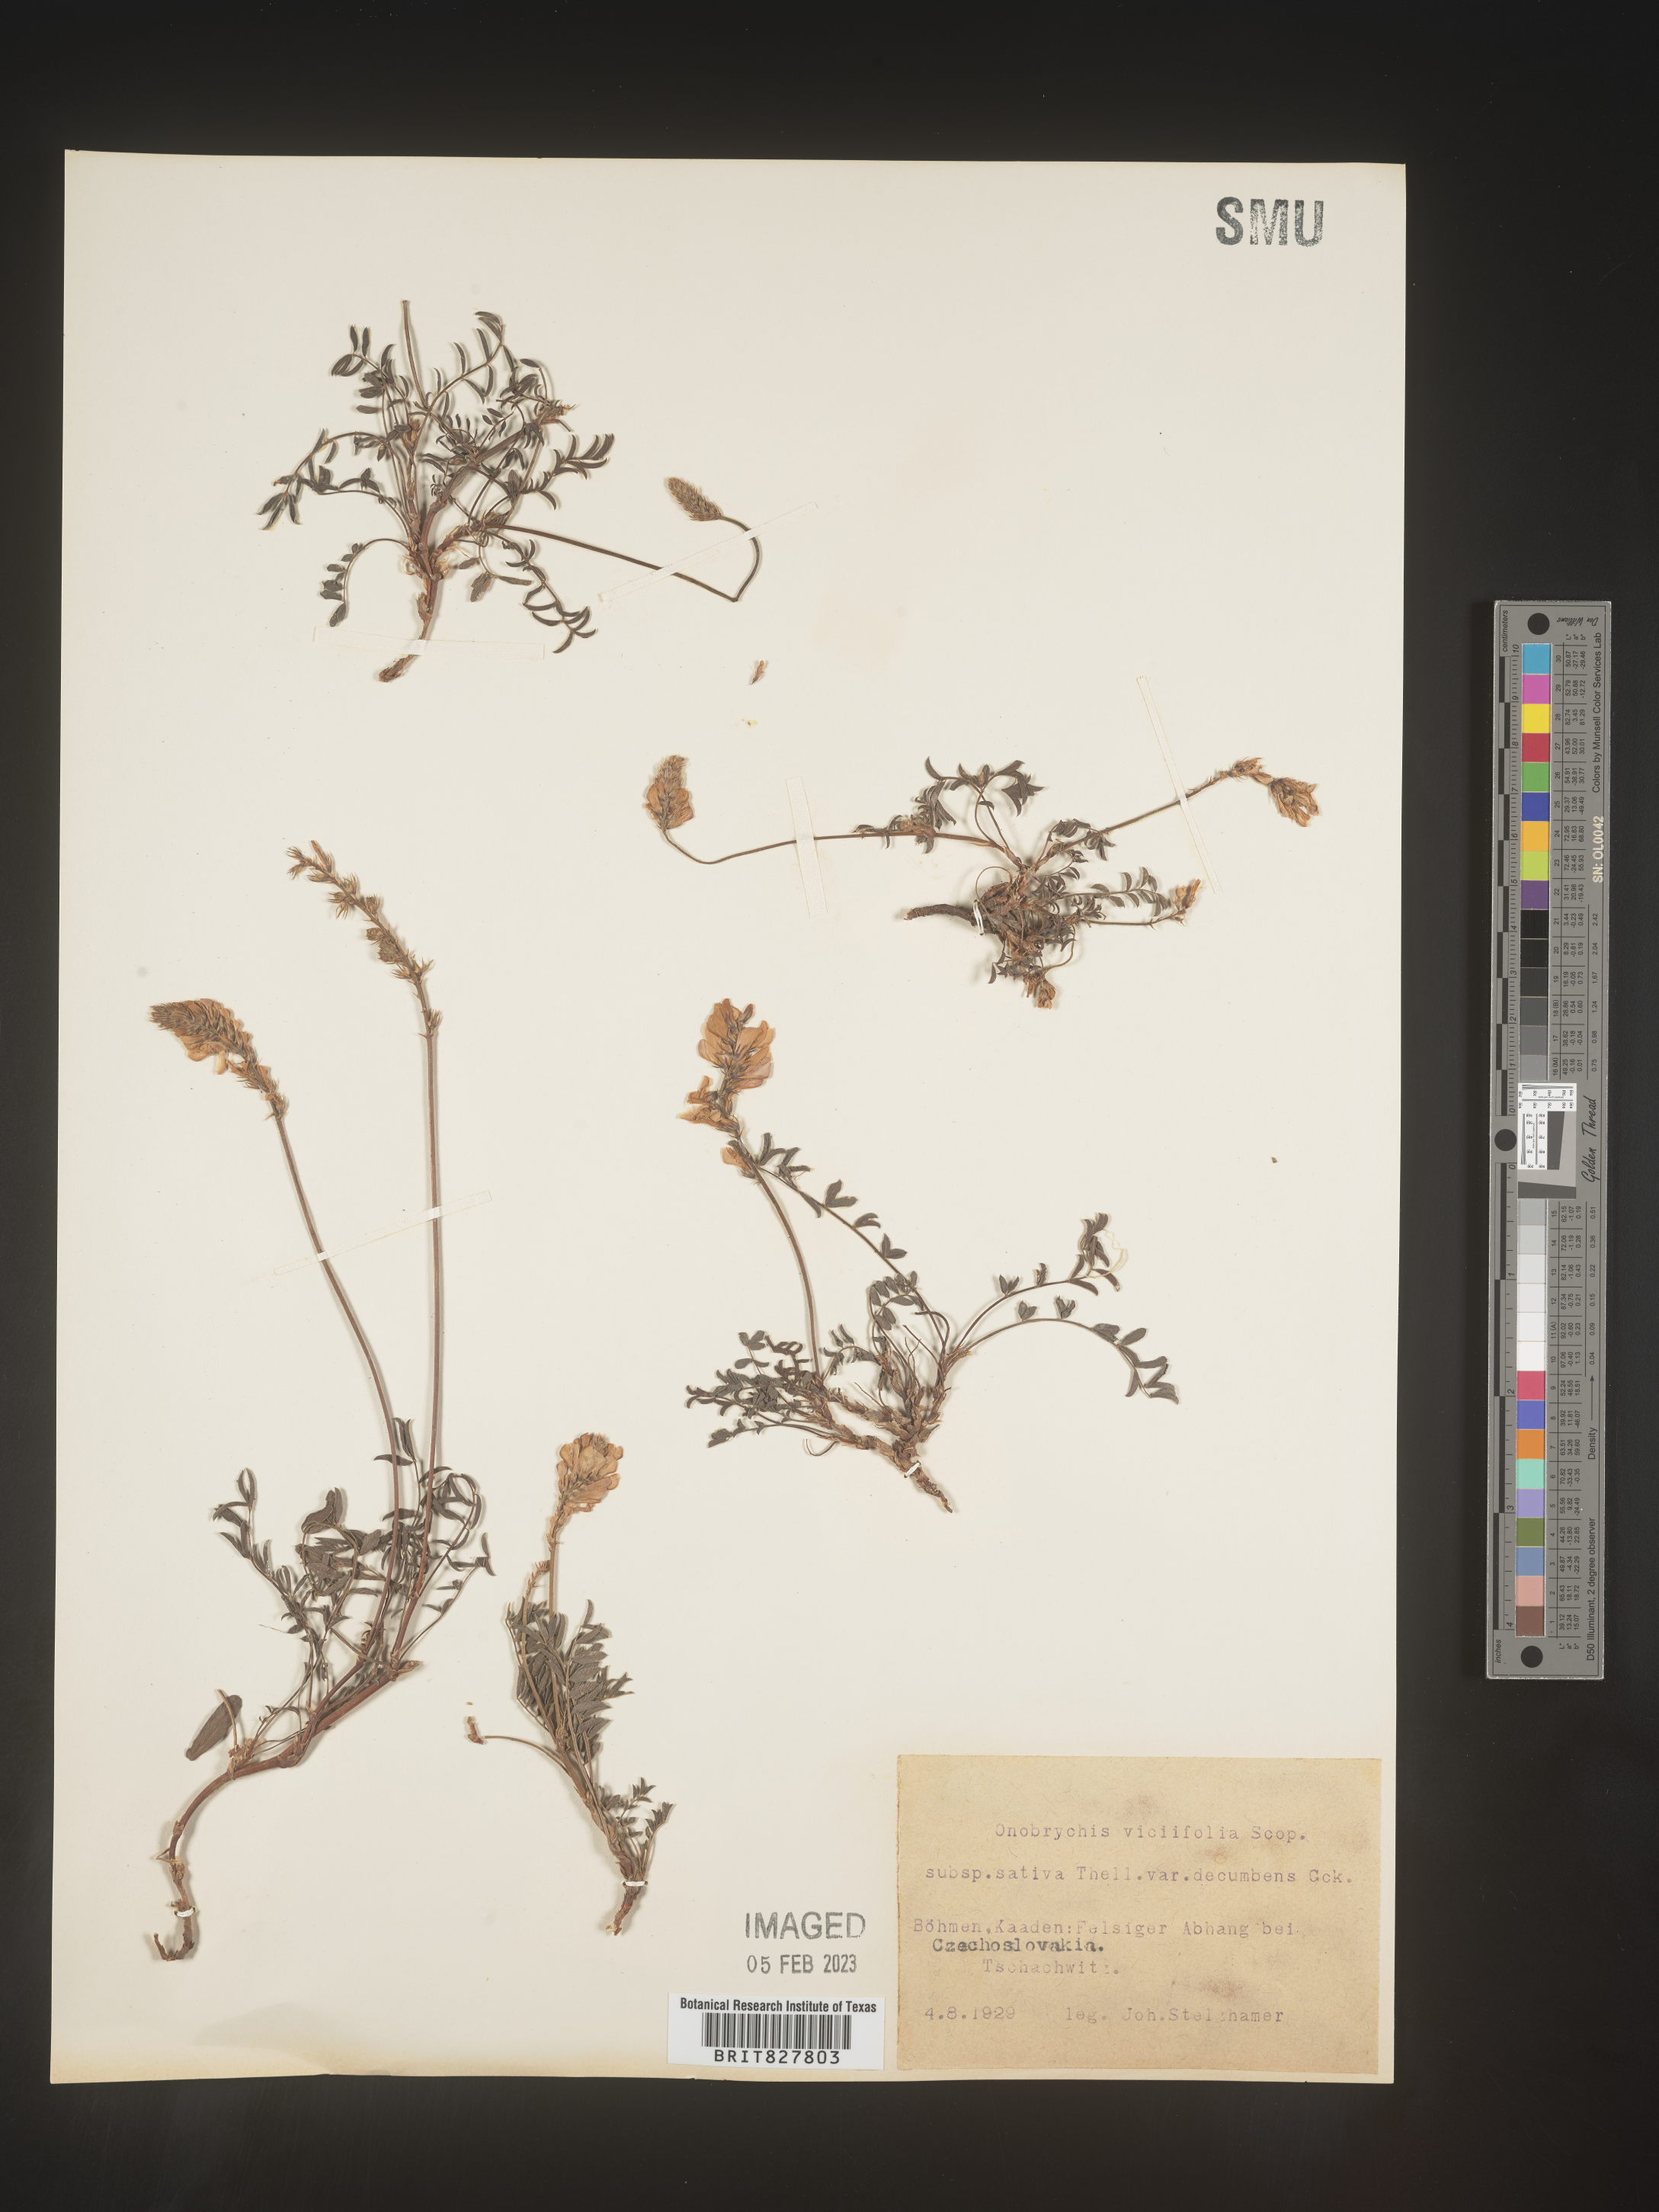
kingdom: Plantae
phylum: Tracheophyta
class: Magnoliopsida
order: Fabales
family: Fabaceae
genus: Onobrychis
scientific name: Onobrychis
